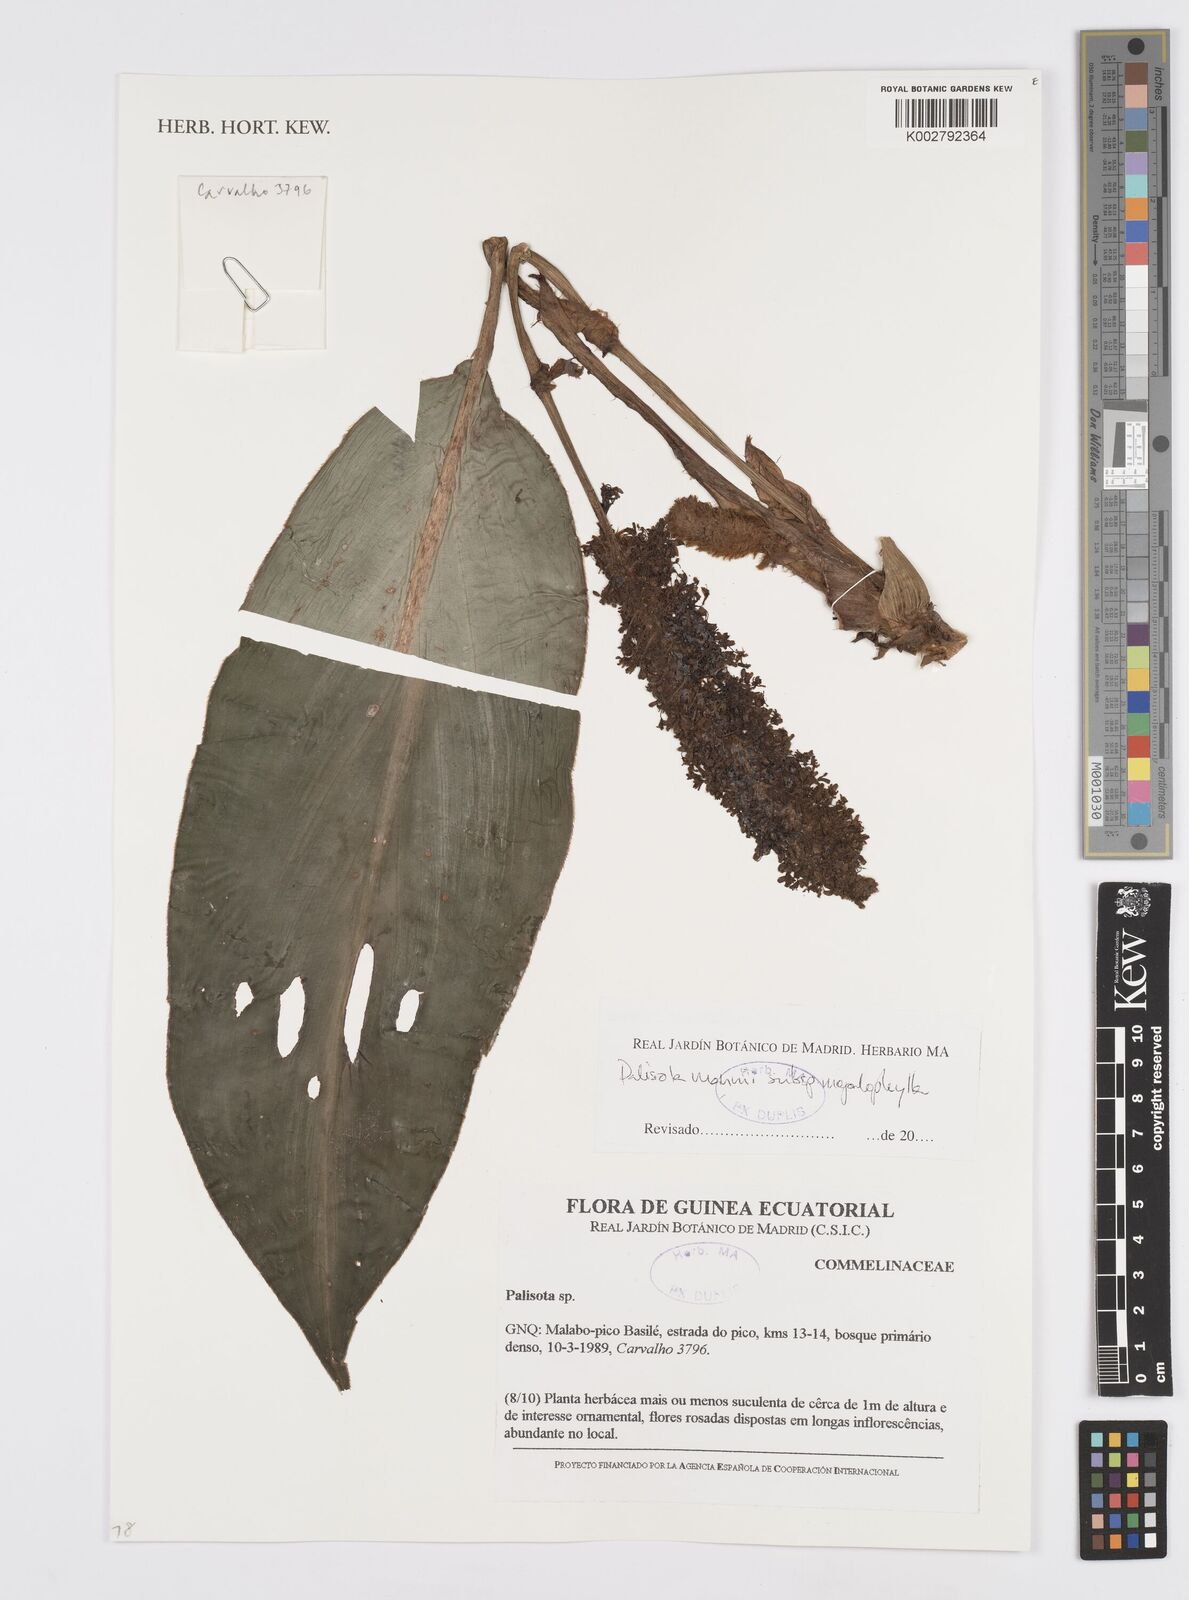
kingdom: Plantae
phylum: Tracheophyta
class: Liliopsida
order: Commelinales
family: Commelinaceae
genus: Palisota
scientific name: Palisota mannii
